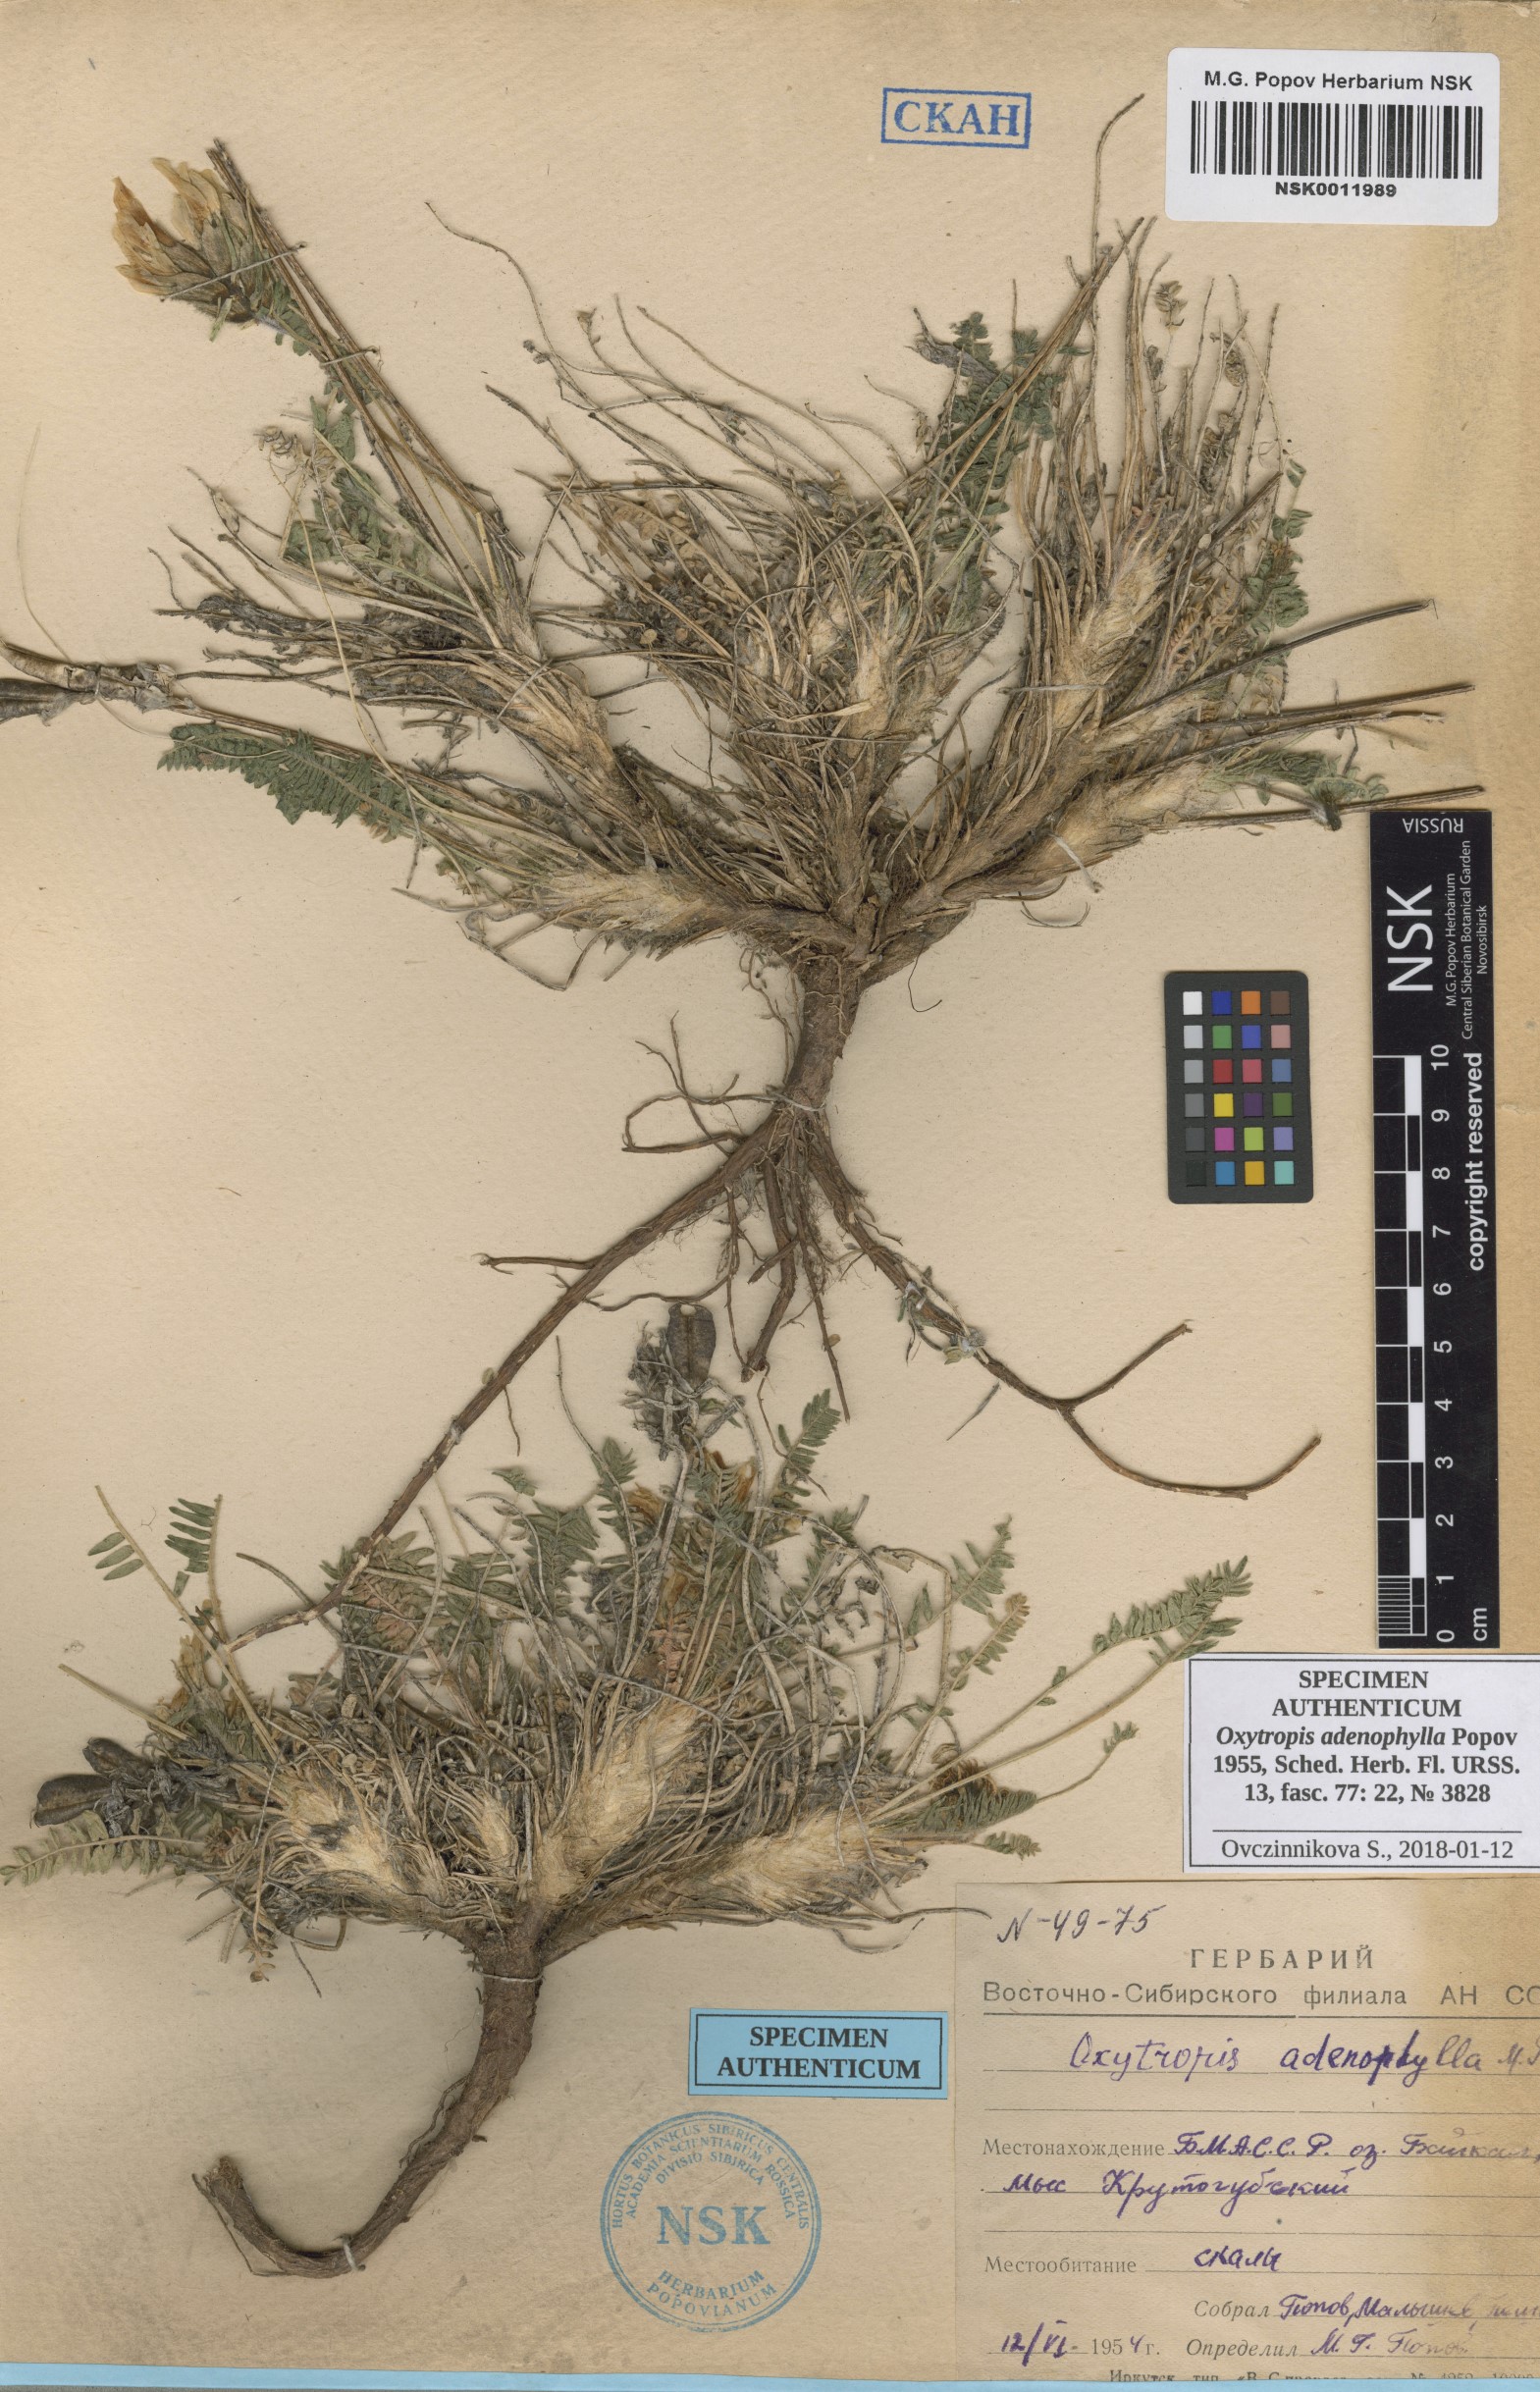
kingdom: Plantae
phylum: Tracheophyta
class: Magnoliopsida
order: Fabales
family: Fabaceae
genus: Oxytropis
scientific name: Oxytropis adenophylla
